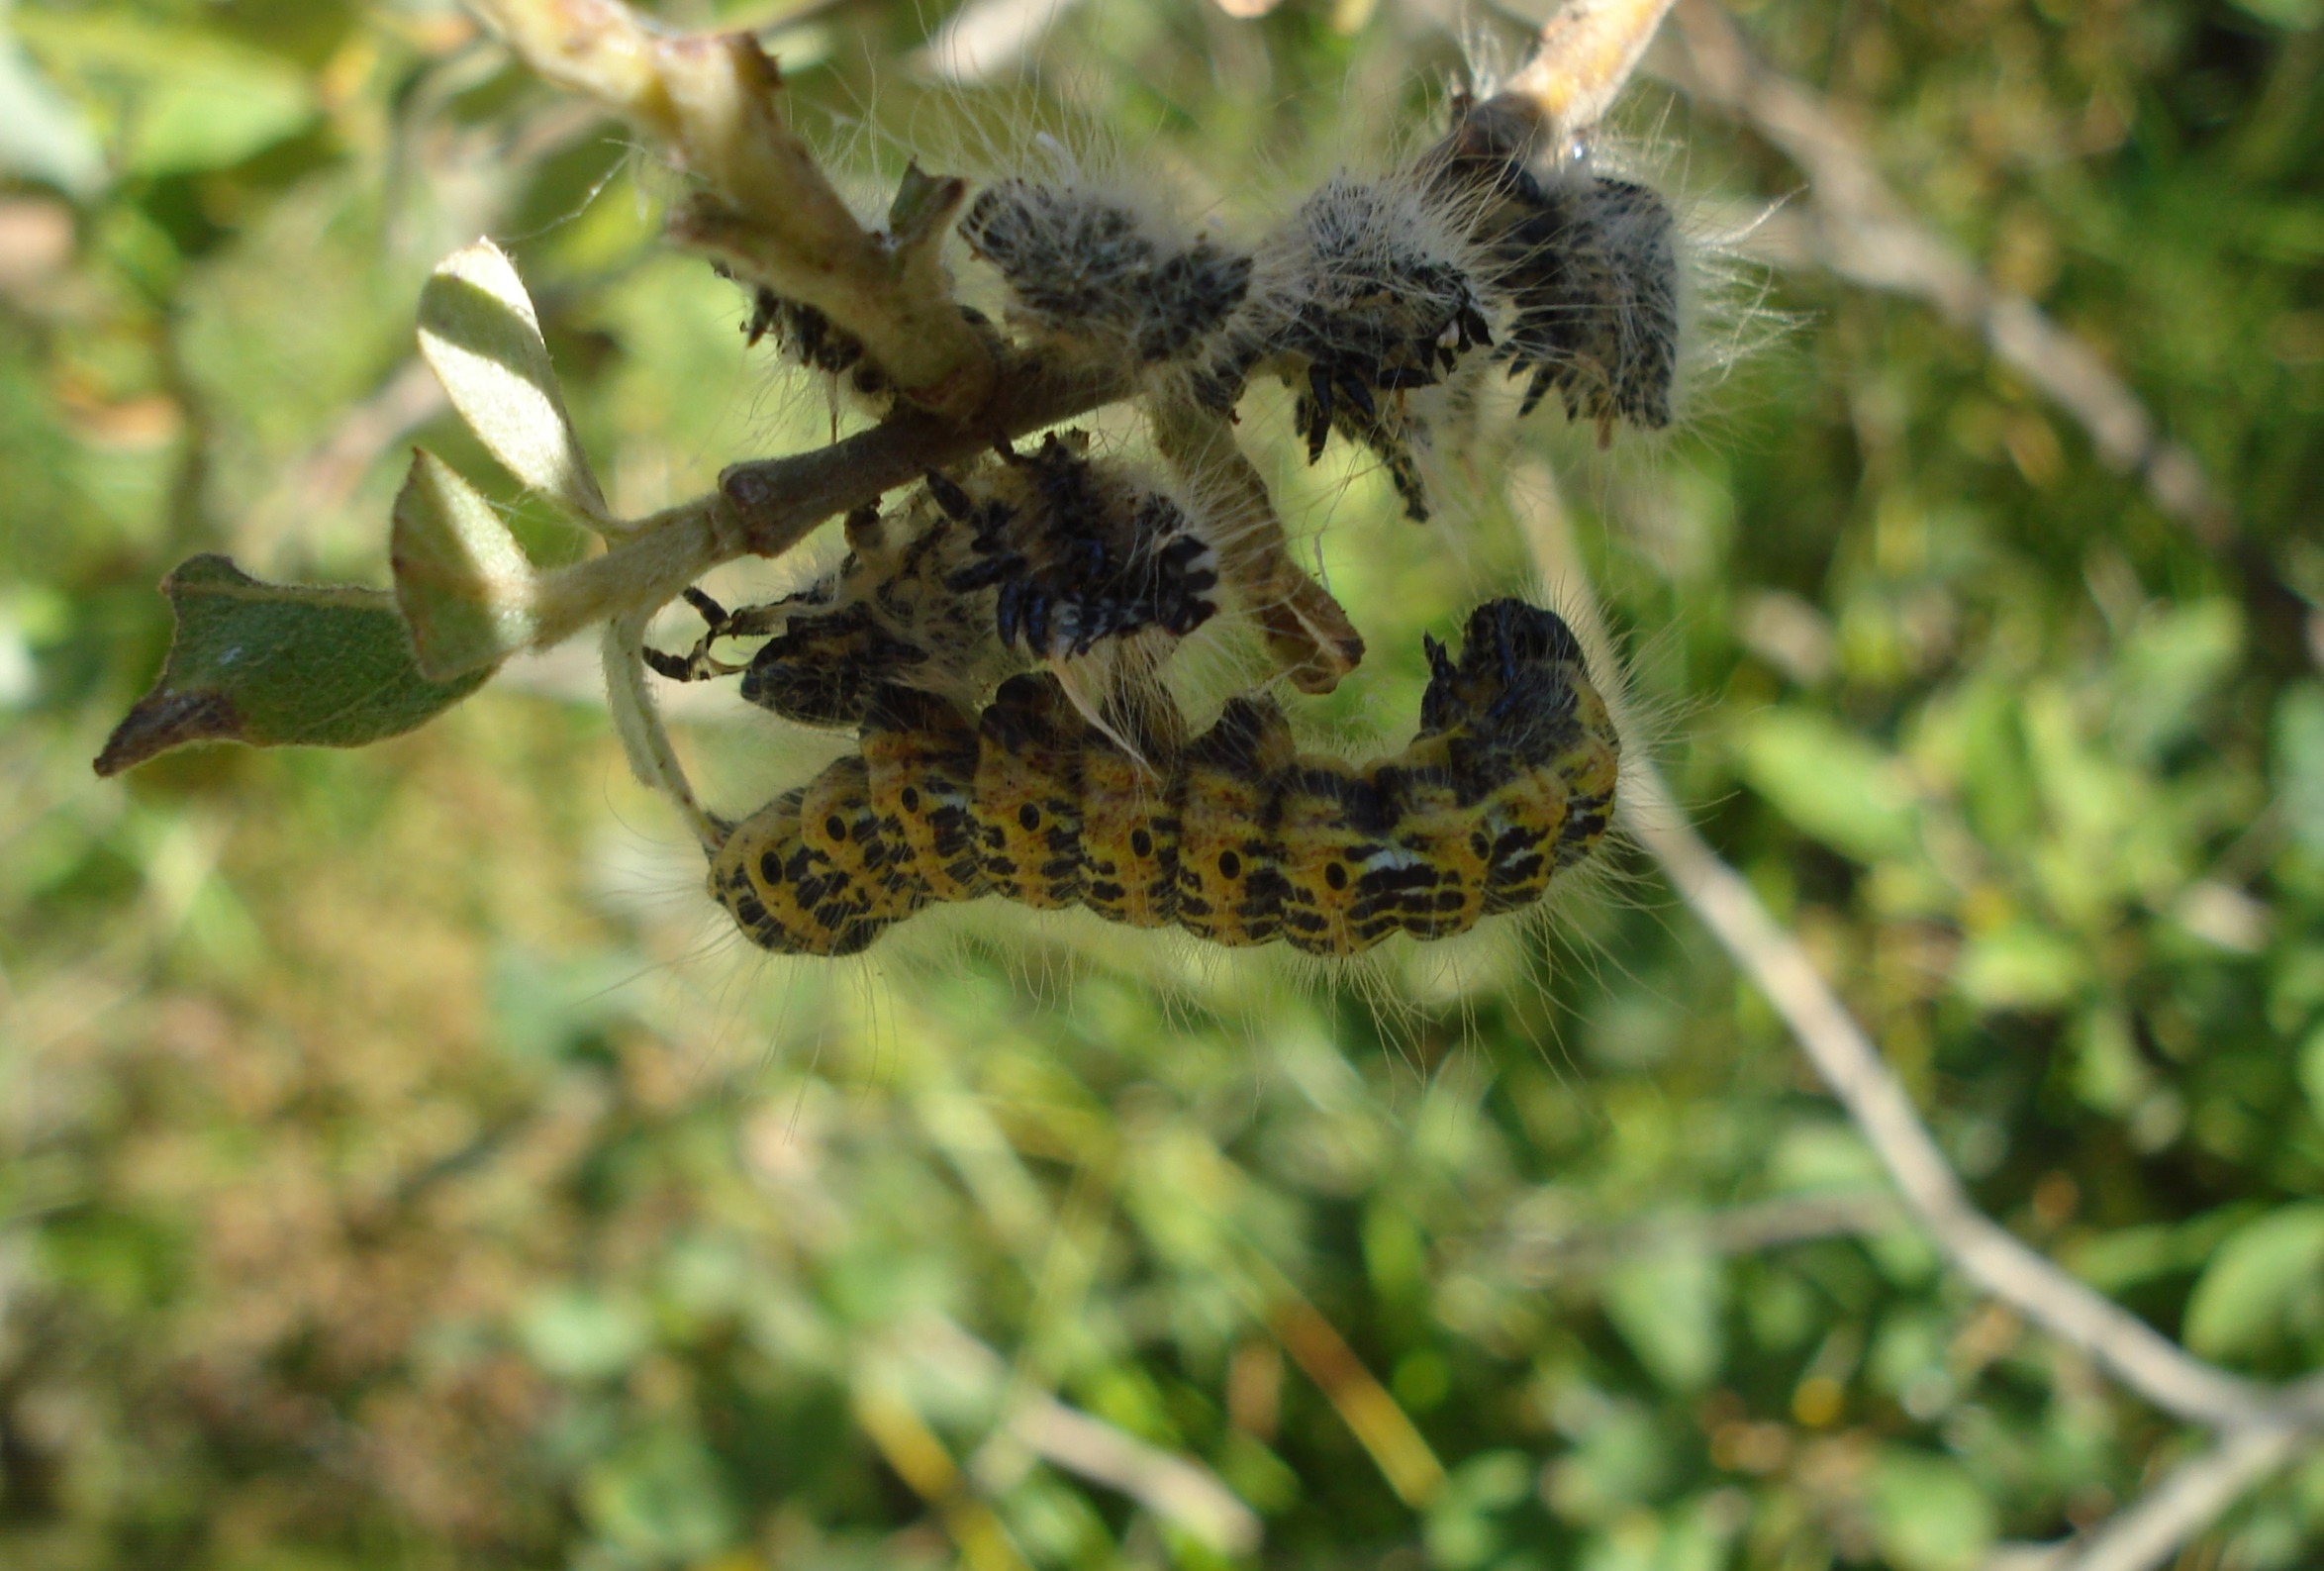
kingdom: Animalia
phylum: Arthropoda
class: Insecta
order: Lepidoptera
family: Notodontidae
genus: Phalera
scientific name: Phalera bucephala
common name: Måneplet
